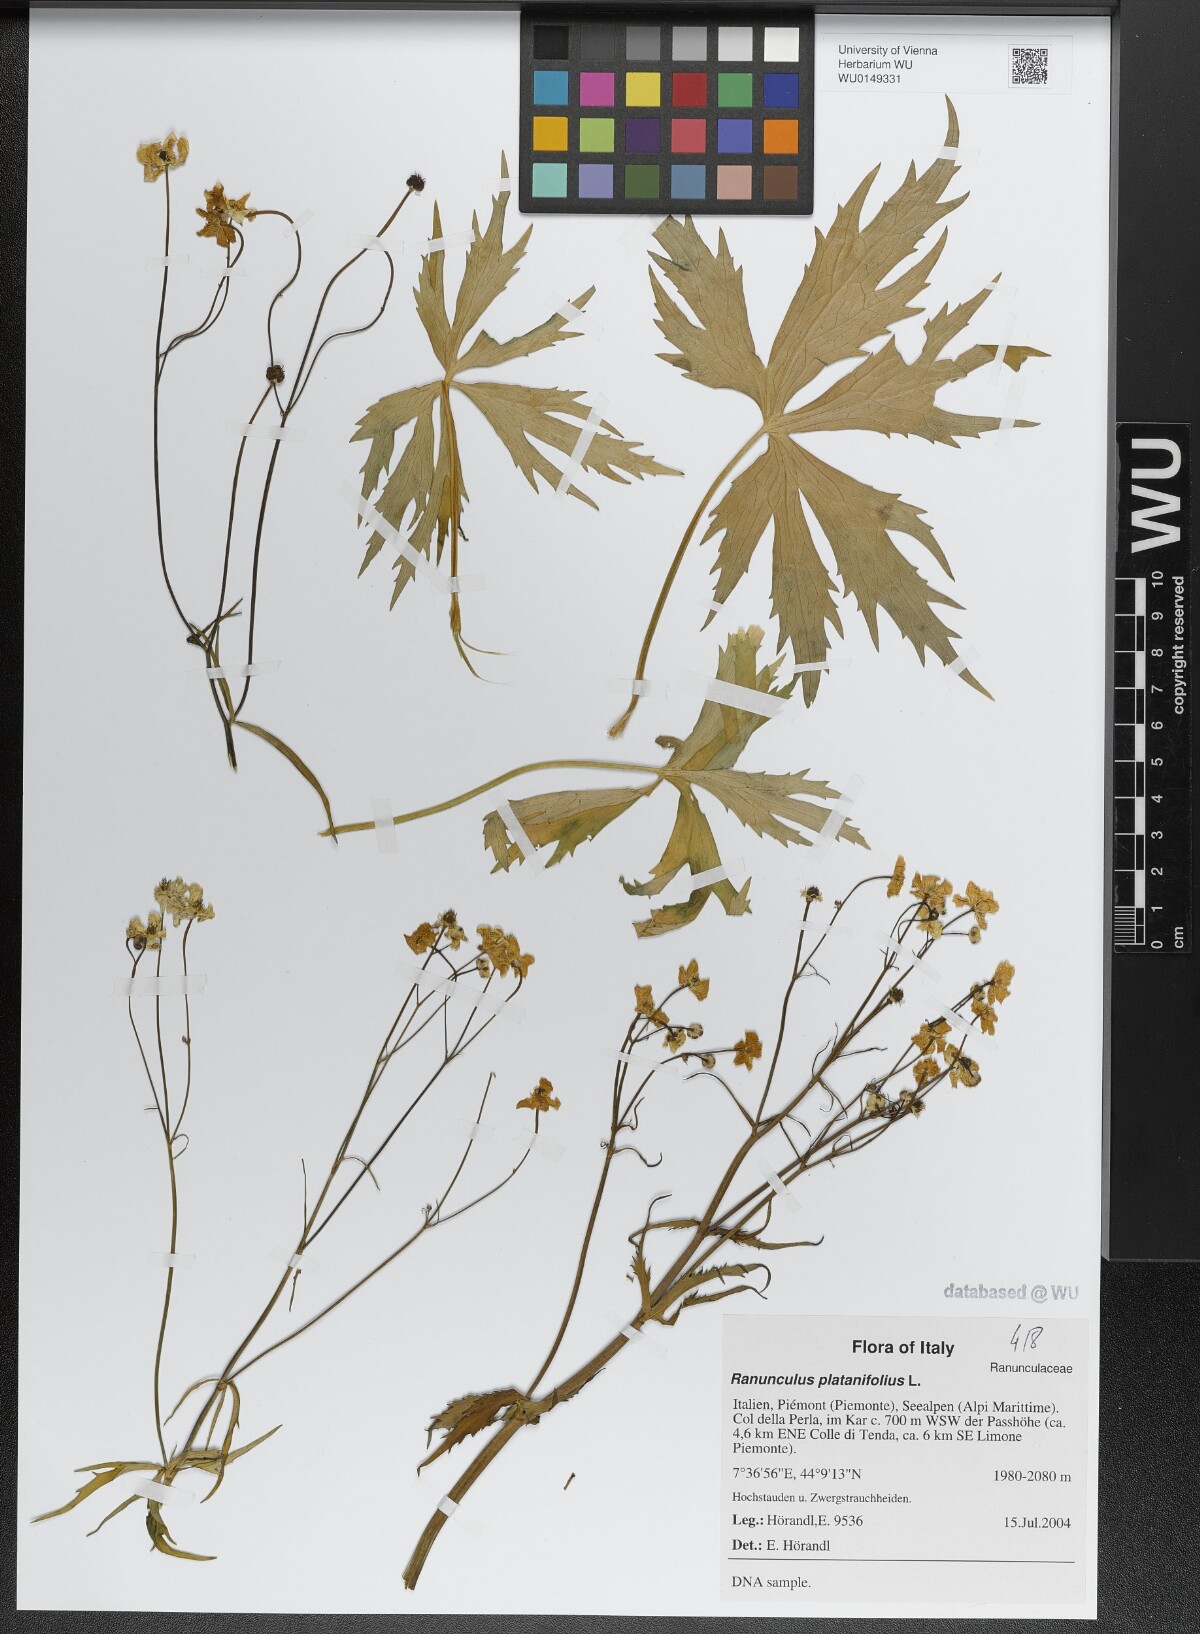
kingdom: Plantae
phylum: Tracheophyta
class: Magnoliopsida
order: Ranunculales
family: Ranunculaceae
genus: Ranunculus
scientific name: Ranunculus platanifolius
